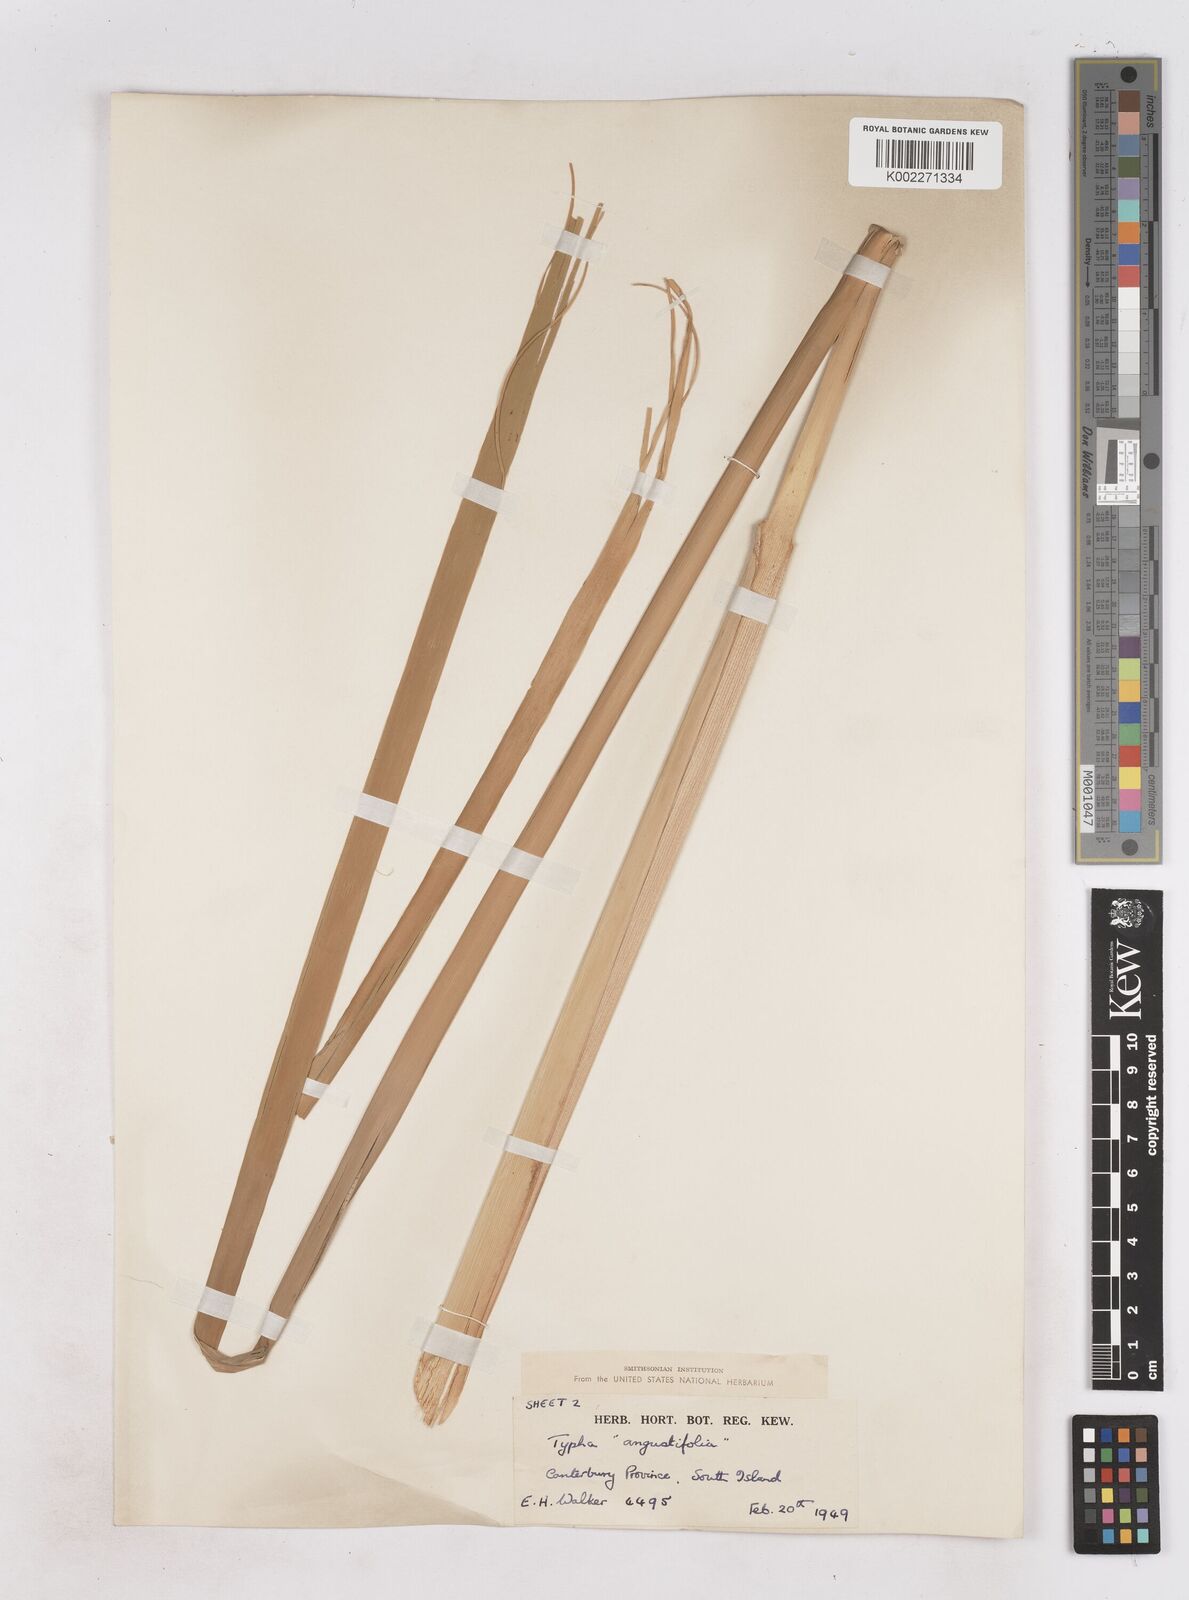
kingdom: Plantae
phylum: Tracheophyta
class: Liliopsida
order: Poales
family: Typhaceae
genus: Typha
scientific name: Typha orientalis
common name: Bullrush
